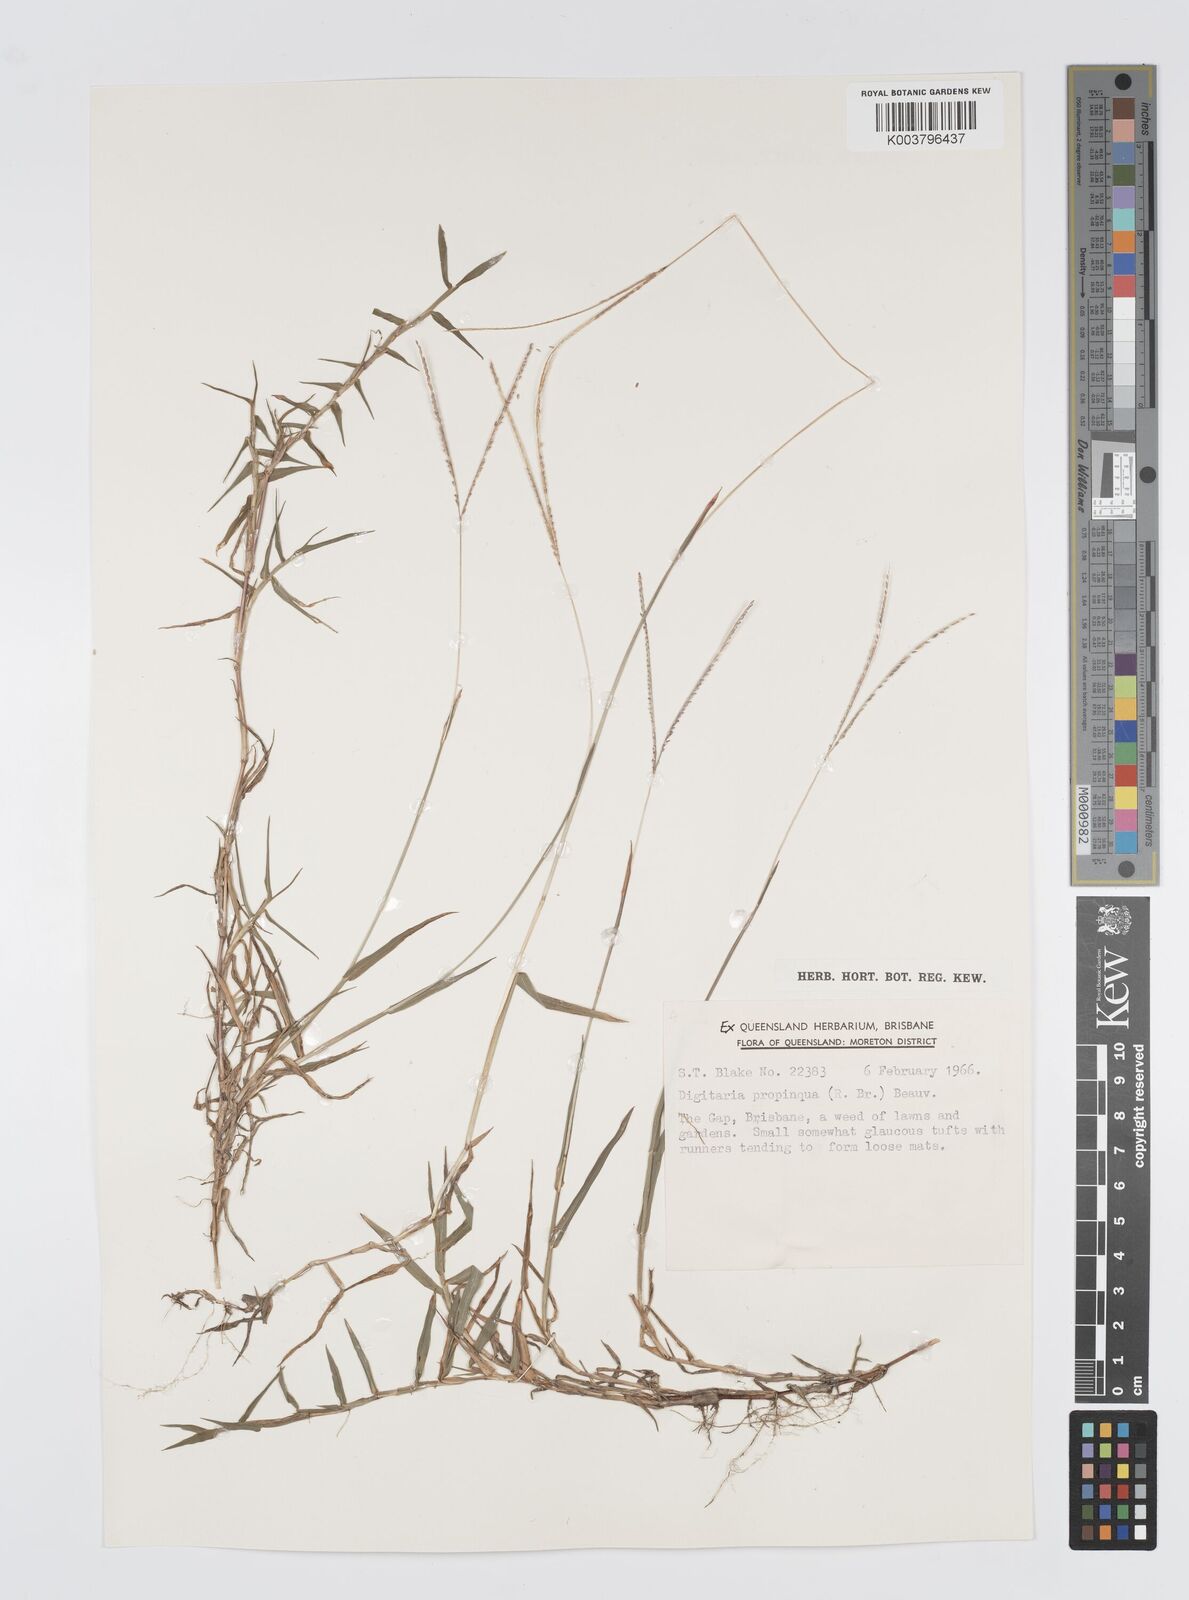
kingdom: Plantae
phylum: Tracheophyta
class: Liliopsida
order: Poales
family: Poaceae
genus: Digitaria
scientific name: Digitaria longiflora
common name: Wire crabgrass
